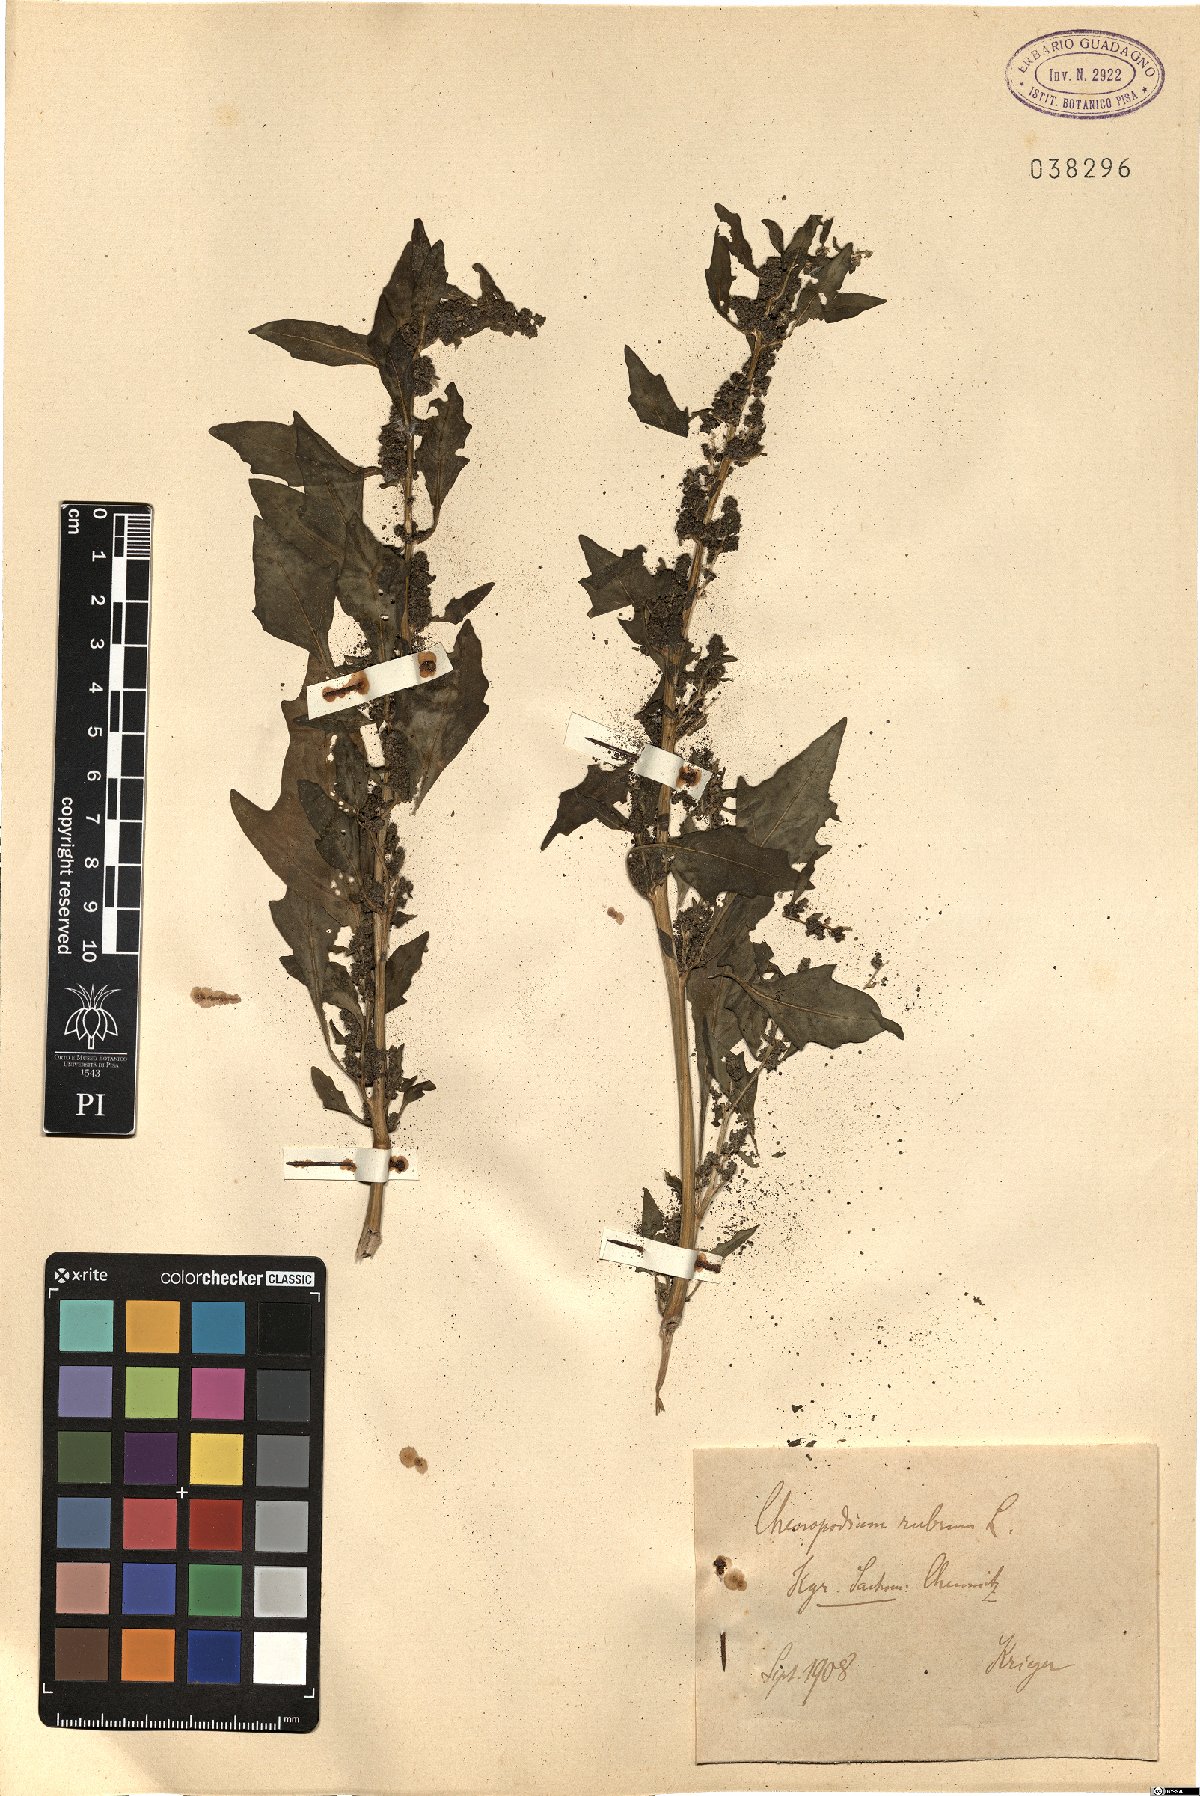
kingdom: Plantae
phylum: Tracheophyta
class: Magnoliopsida
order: Caryophyllales
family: Amaranthaceae
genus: Oxybasis
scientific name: Oxybasis rubra
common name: Red goosefoot
